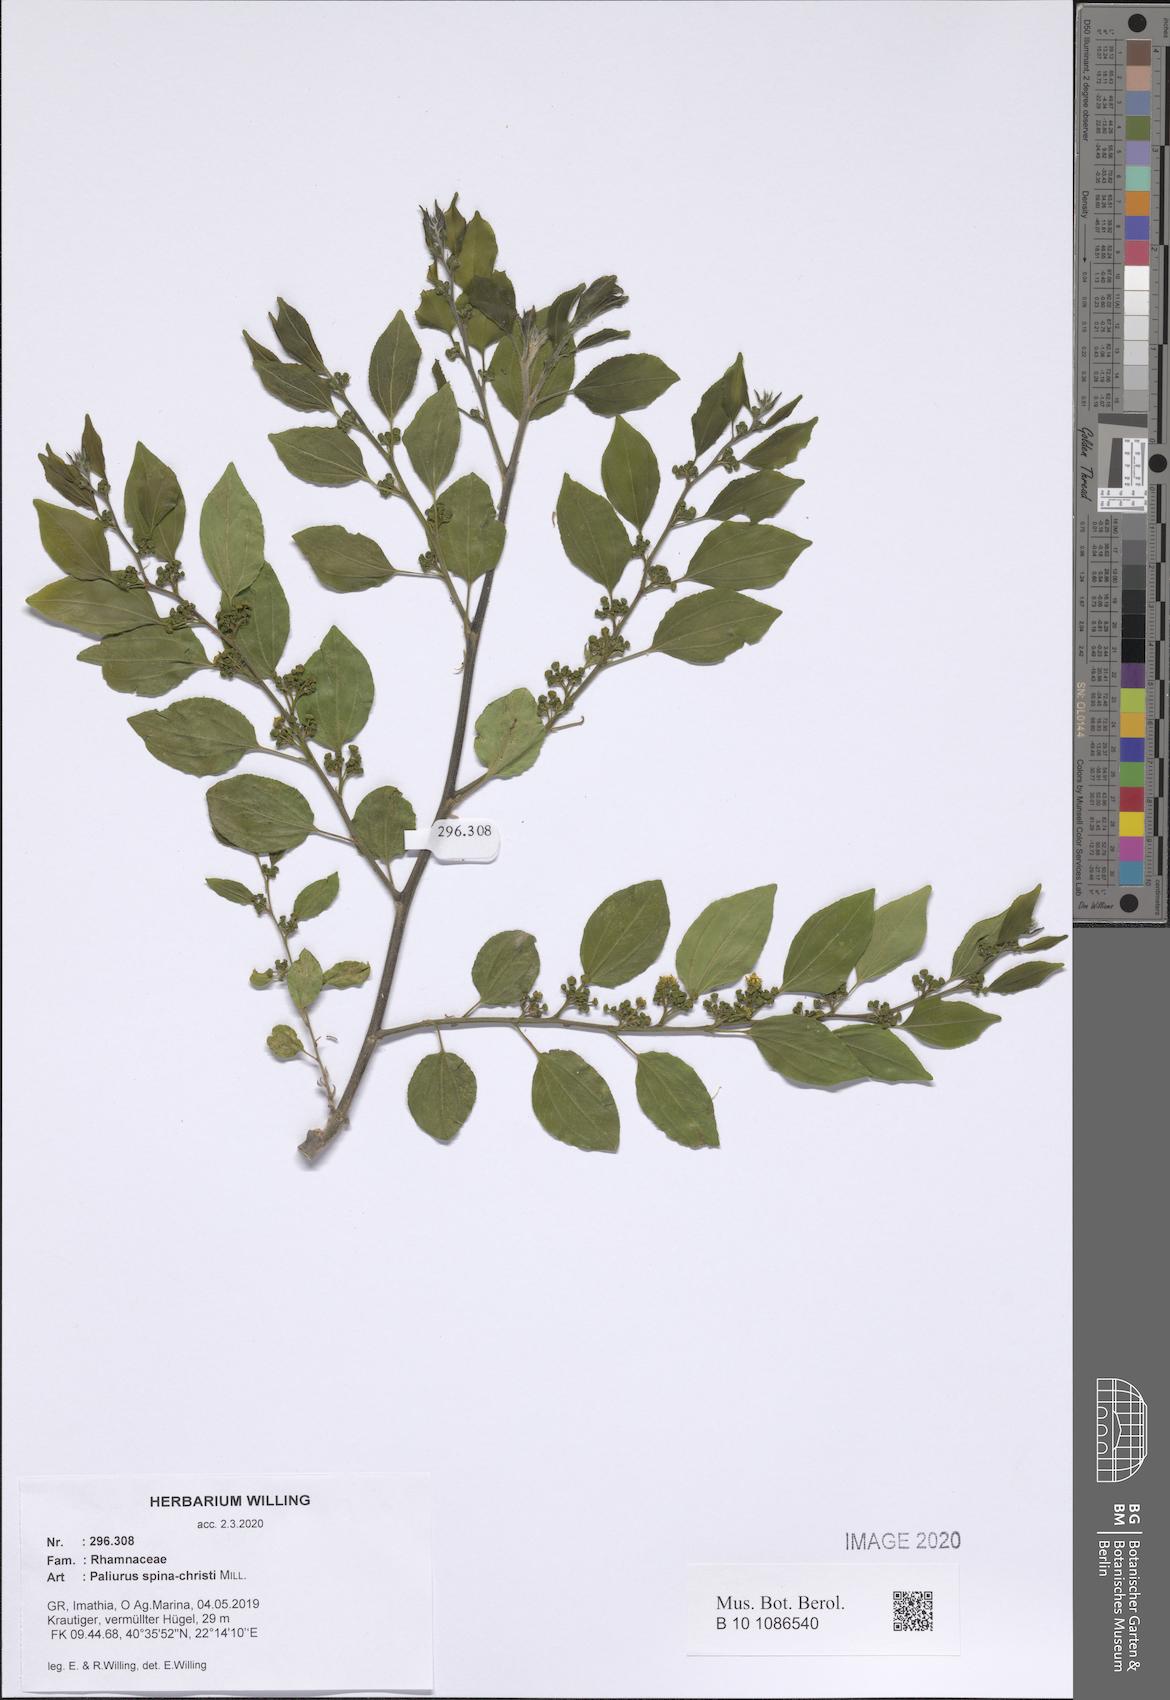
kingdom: Plantae
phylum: Tracheophyta
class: Magnoliopsida
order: Rosales
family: Rhamnaceae
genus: Paliurus
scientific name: Paliurus spina-christi
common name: Jeruselem thorn
